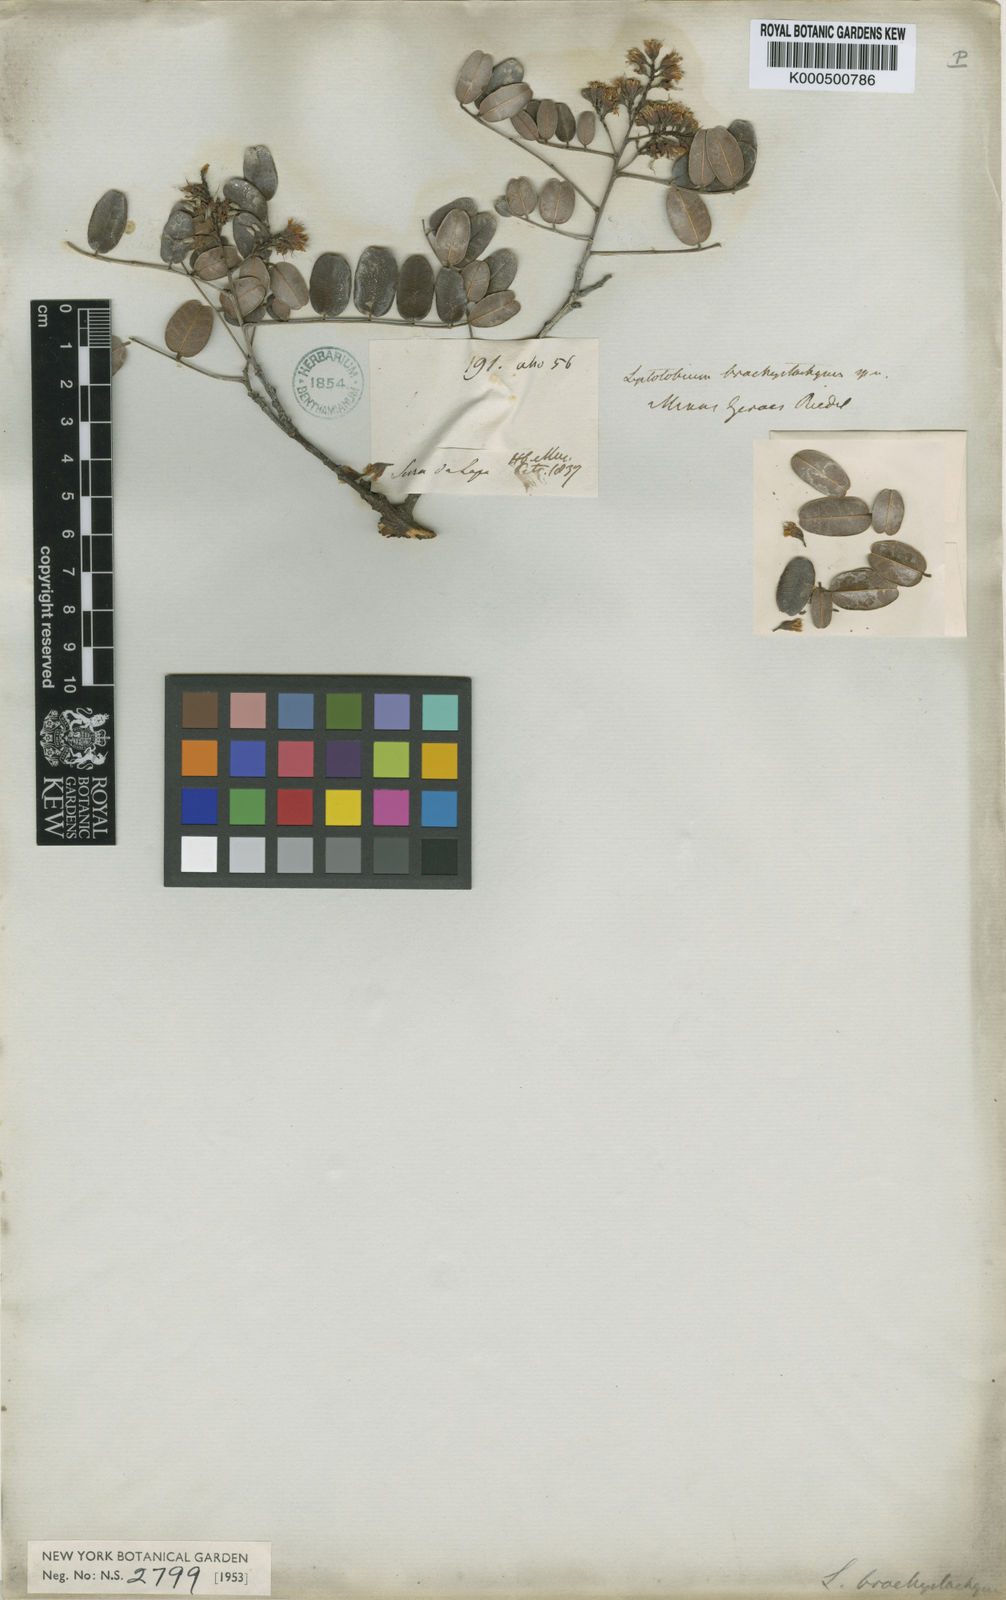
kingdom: Plantae
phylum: Tracheophyta
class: Magnoliopsida
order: Fabales
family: Fabaceae
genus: Leptolobium
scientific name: Leptolobium brachystachyum
